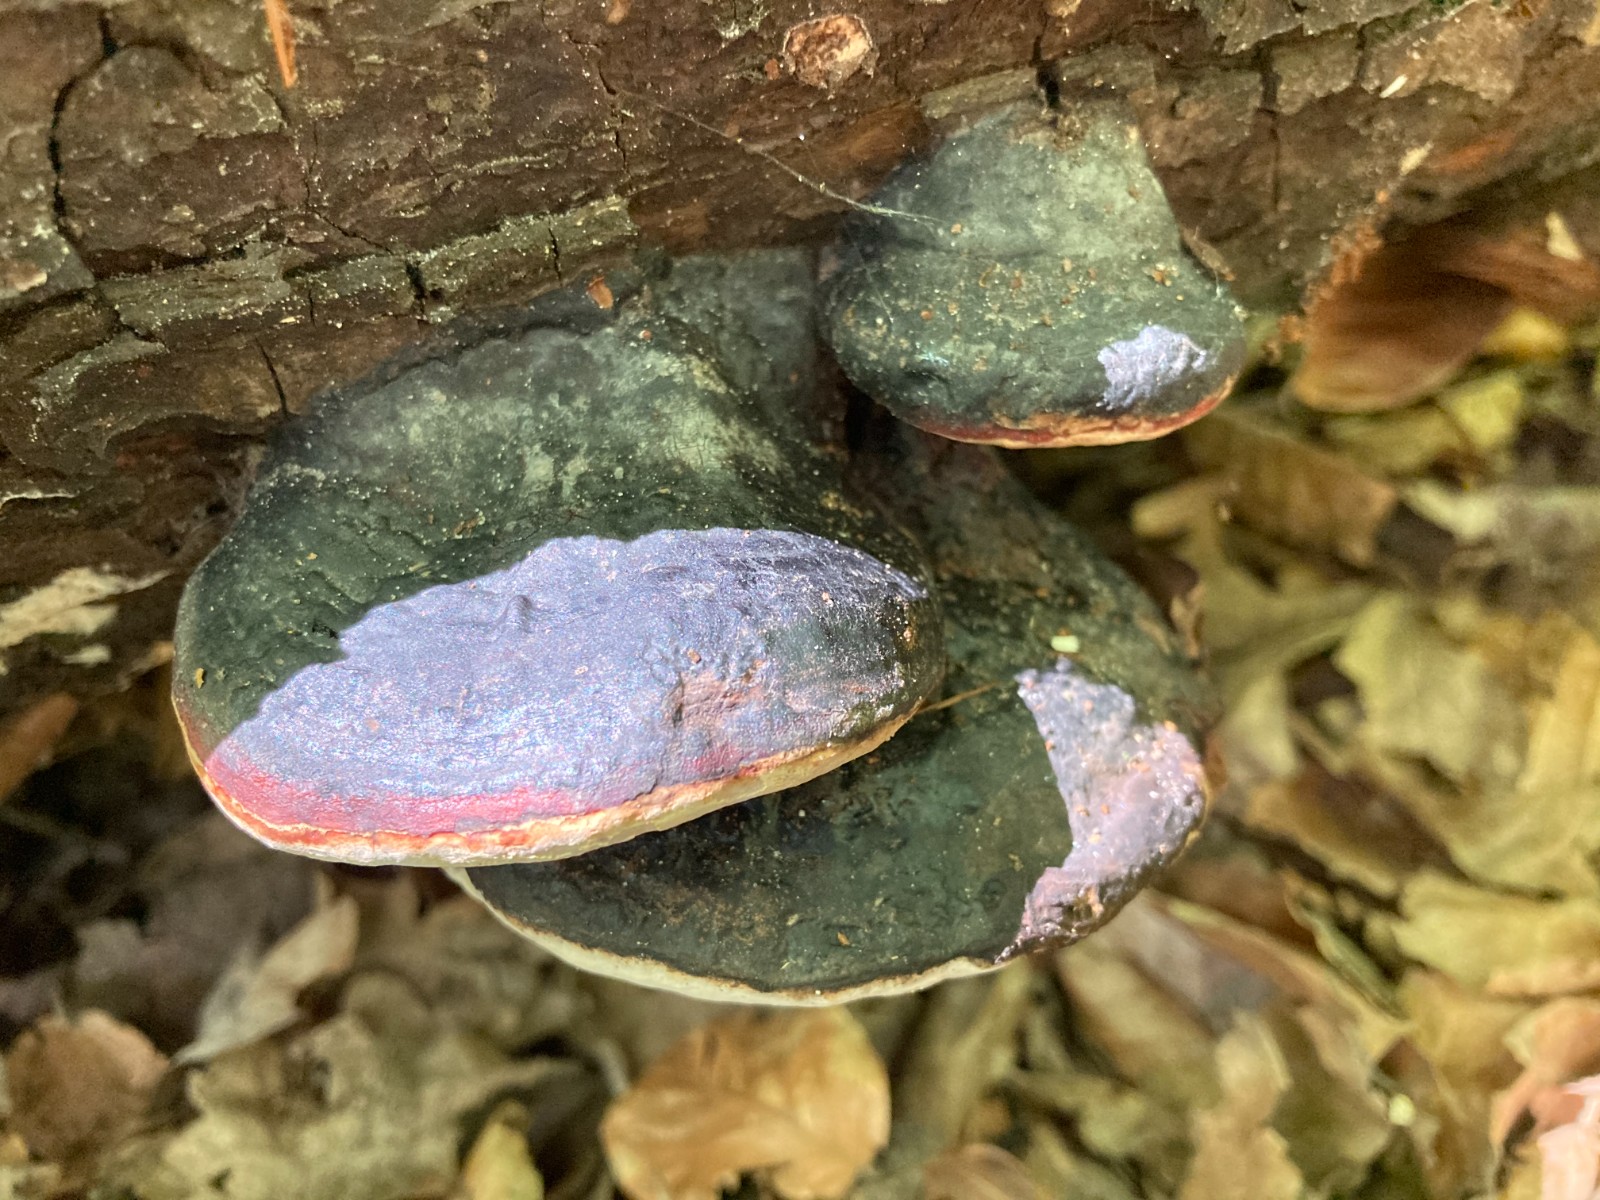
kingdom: Fungi
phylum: Basidiomycota
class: Agaricomycetes
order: Polyporales
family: Fomitopsidaceae
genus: Fomitopsis
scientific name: Fomitopsis pinicola
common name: randbæltet hovporesvamp
